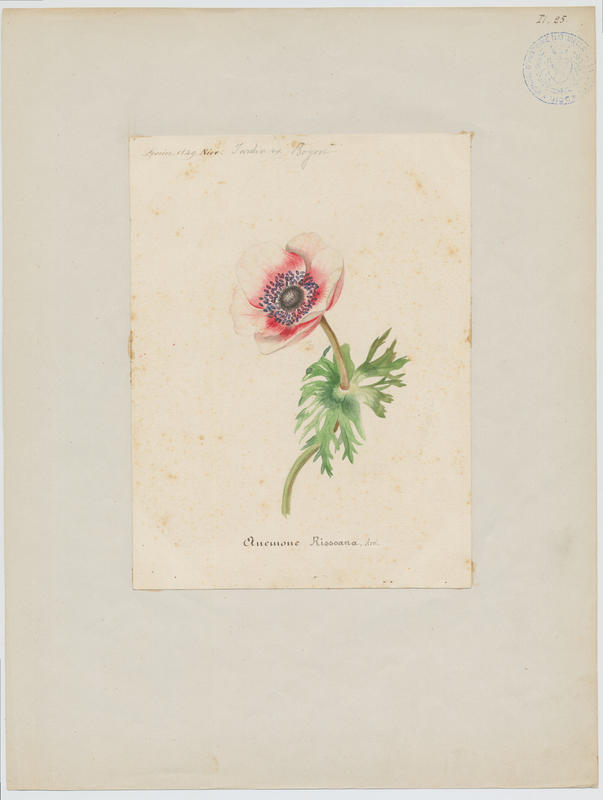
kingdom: Plantae
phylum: Tracheophyta
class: Magnoliopsida
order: Ranunculales
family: Ranunculaceae
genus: Anemone
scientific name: Anemone coronaria
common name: Poppy anemone
